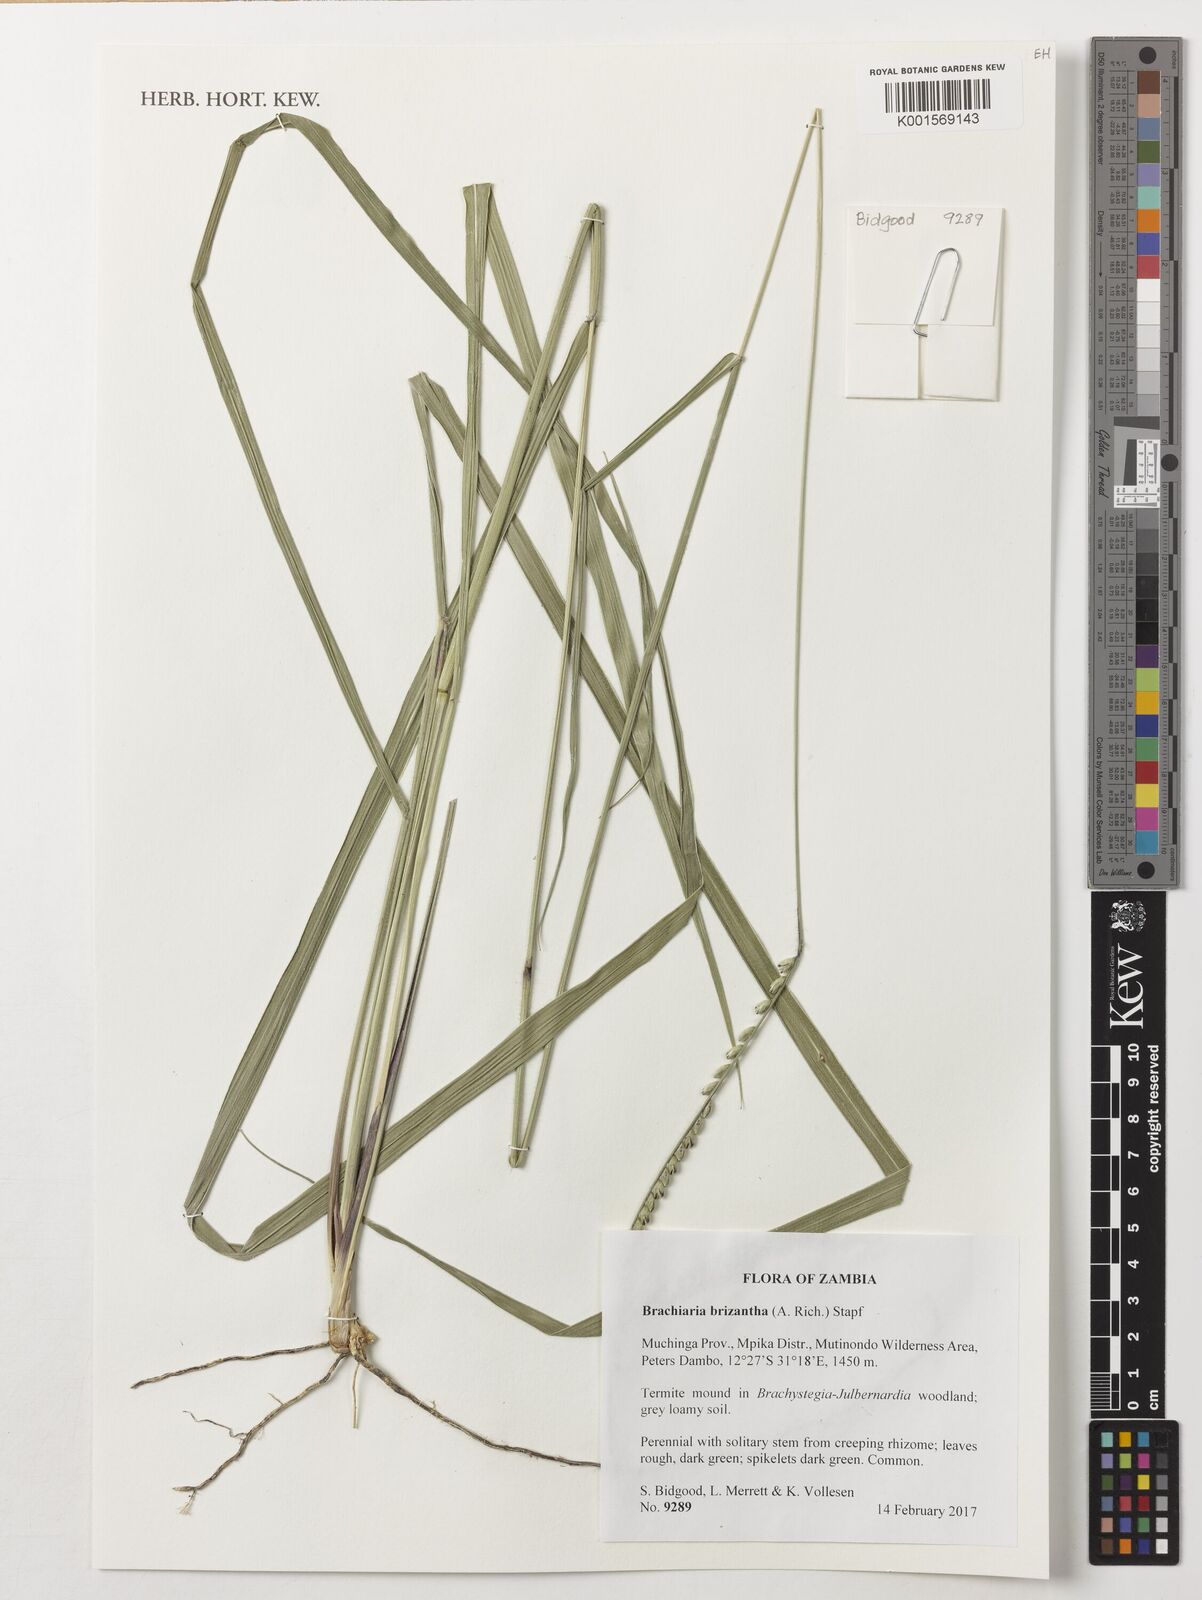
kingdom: Plantae
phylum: Tracheophyta
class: Liliopsida
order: Poales
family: Poaceae
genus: Urochloa
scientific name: Urochloa brizantha
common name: Palisade signalgrass
